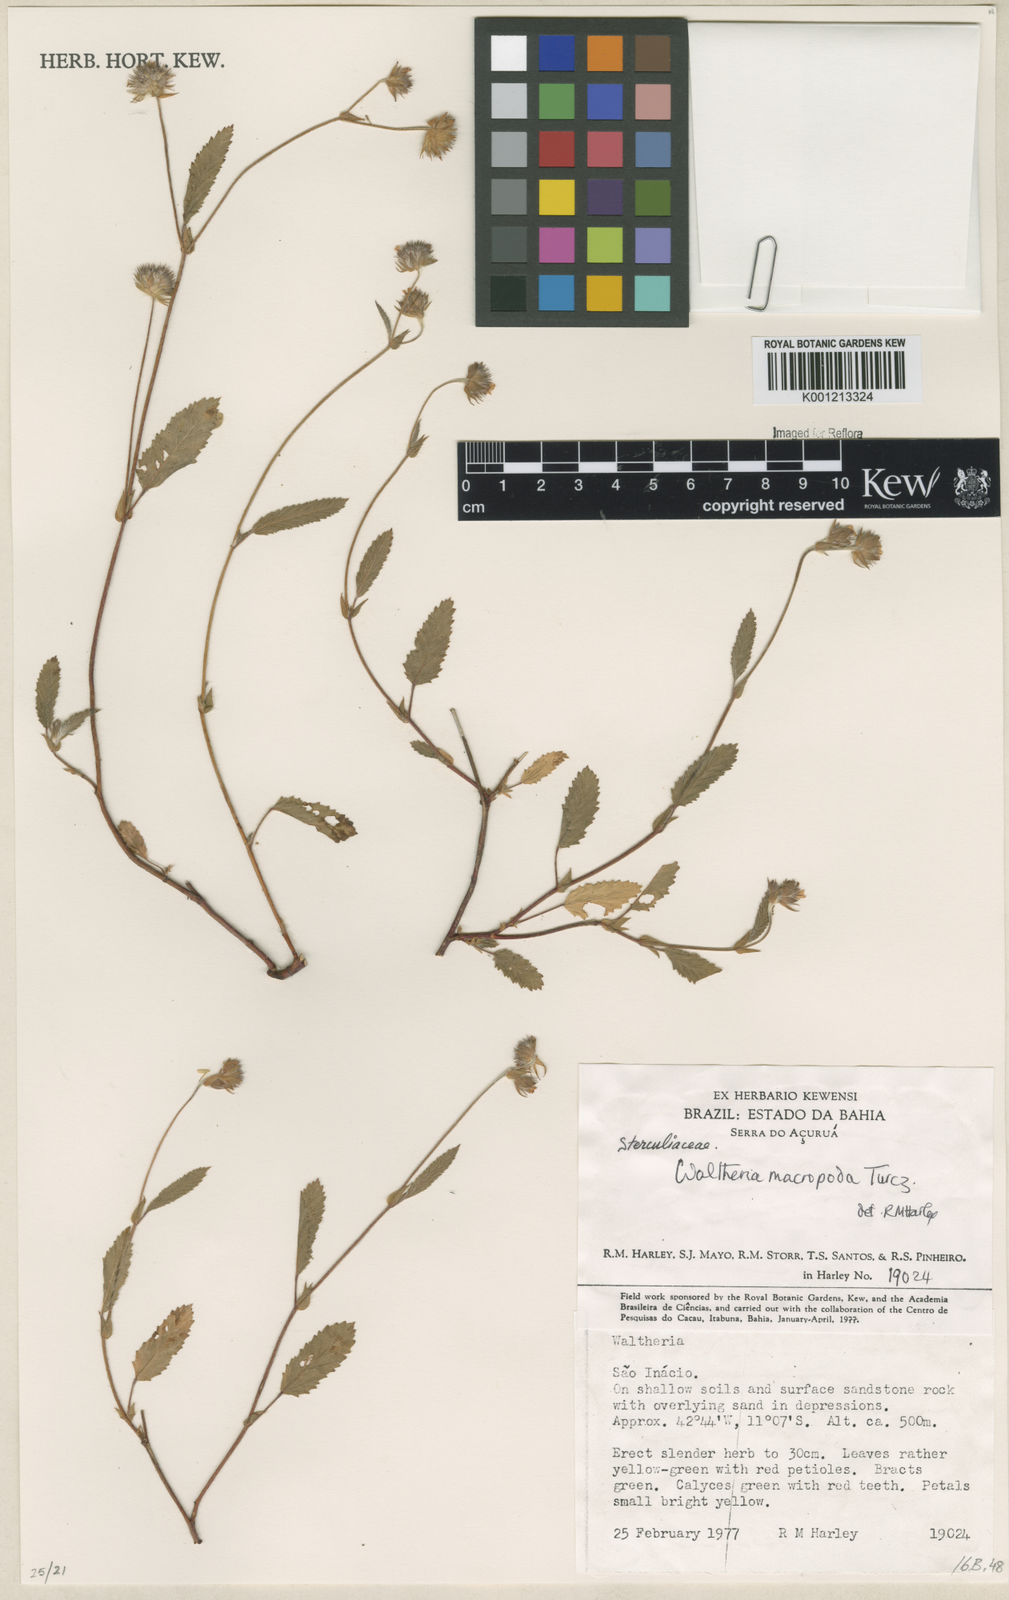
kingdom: Plantae
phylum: Tracheophyta
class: Magnoliopsida
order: Malvales
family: Malvaceae
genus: Waltheria
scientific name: Waltheria bracteosa
